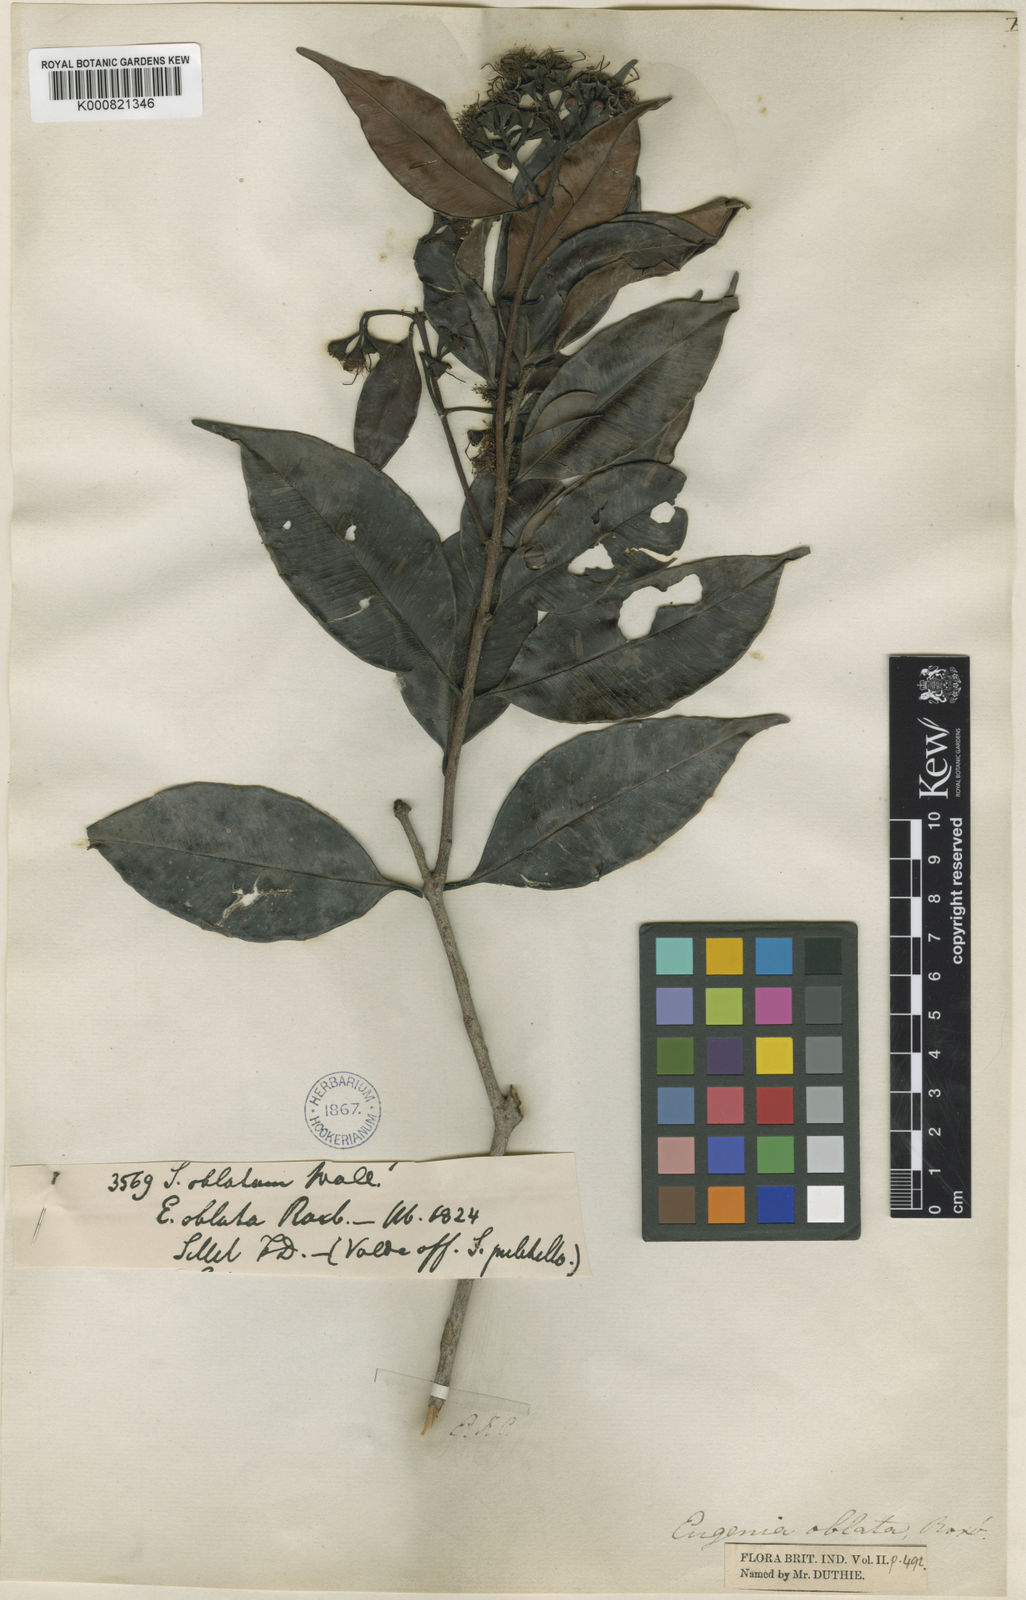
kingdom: Plantae
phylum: Tracheophyta
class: Magnoliopsida
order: Myrtales
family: Myrtaceae
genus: Syzygium
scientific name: Syzygium
